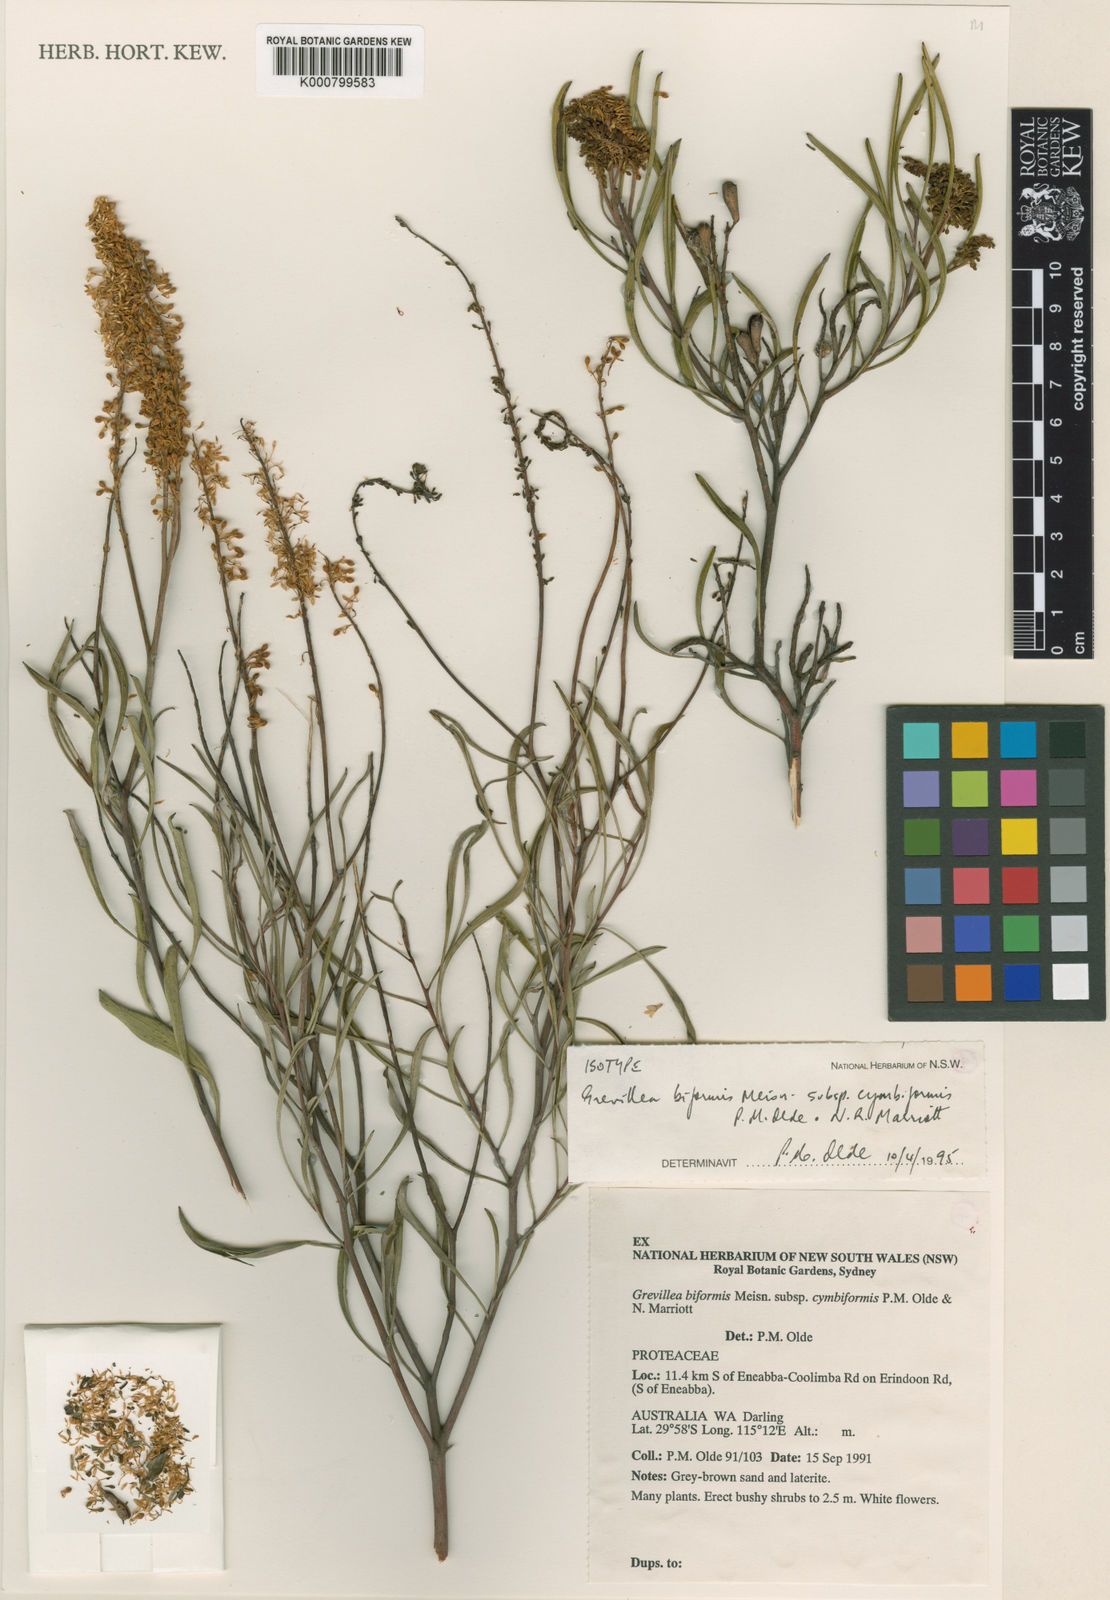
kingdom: Plantae
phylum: Tracheophyta
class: Magnoliopsida
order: Proteales
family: Proteaceae
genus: Grevillea
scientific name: Grevillea biformis
